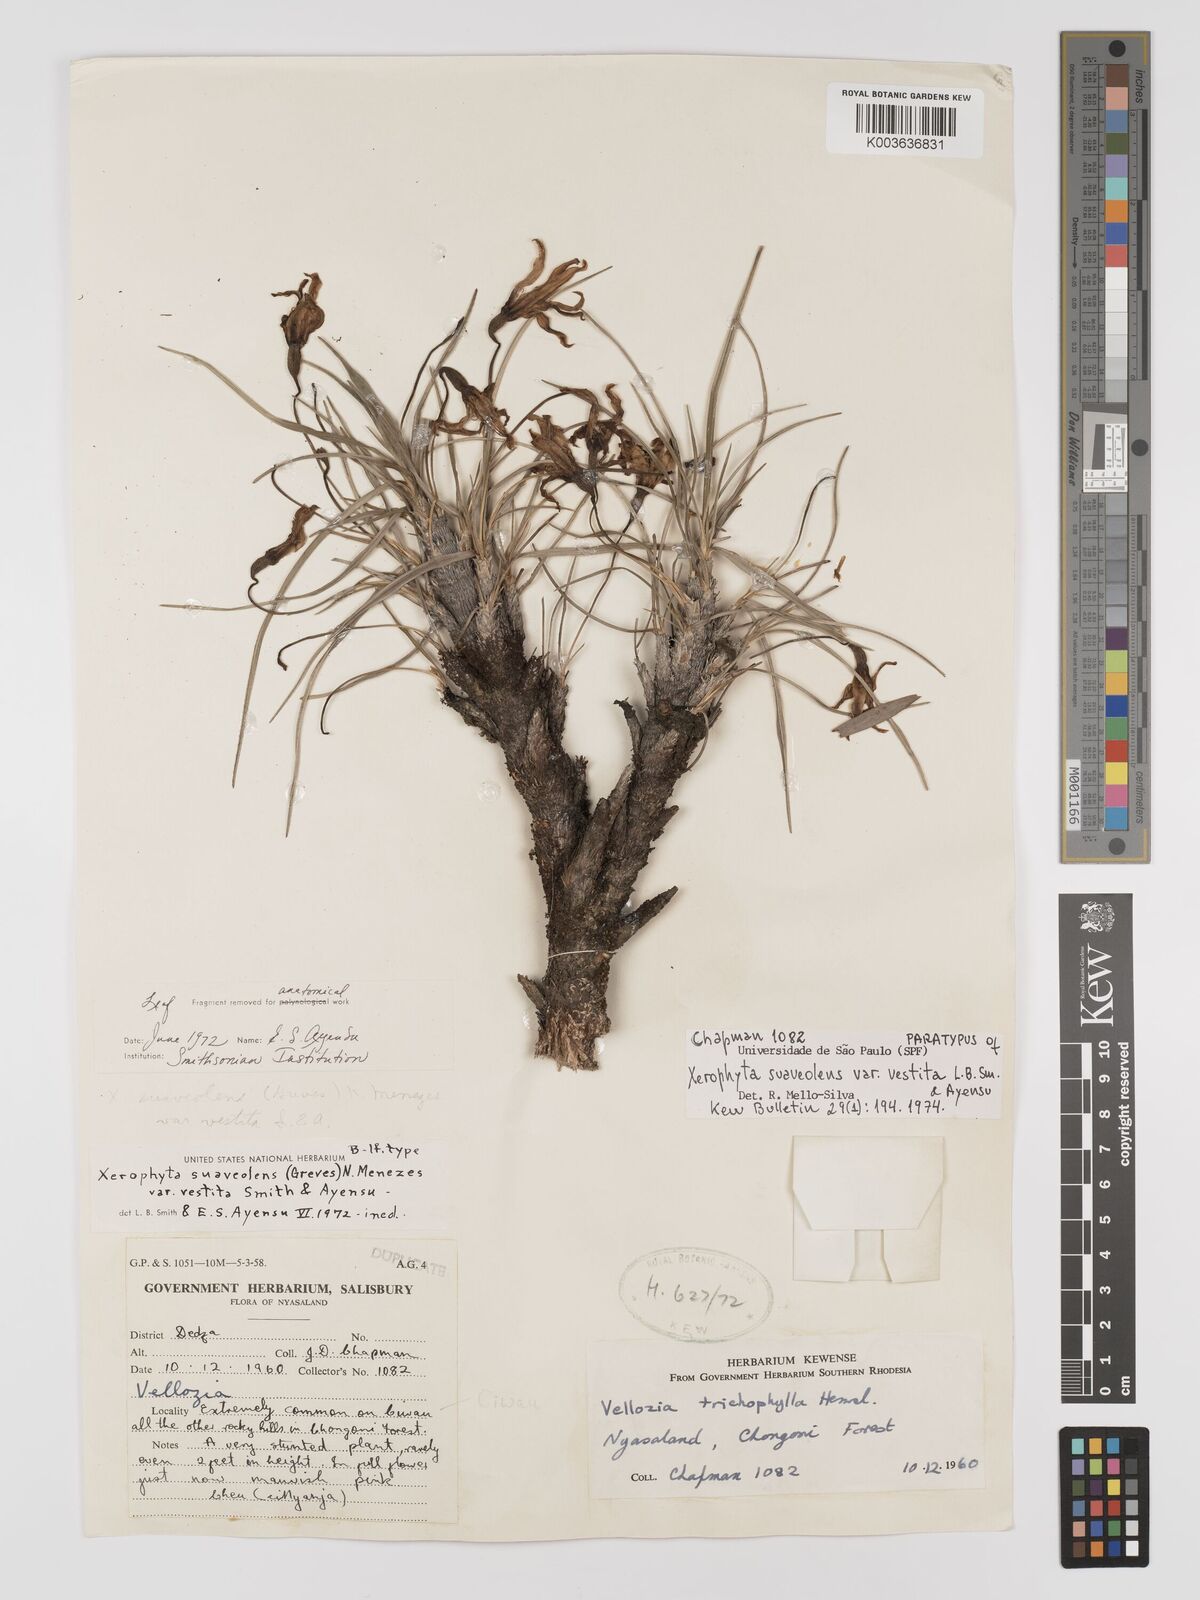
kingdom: Plantae
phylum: Tracheophyta
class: Liliopsida
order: Pandanales
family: Velloziaceae
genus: Xerophyta
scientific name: Xerophyta suaveolens
